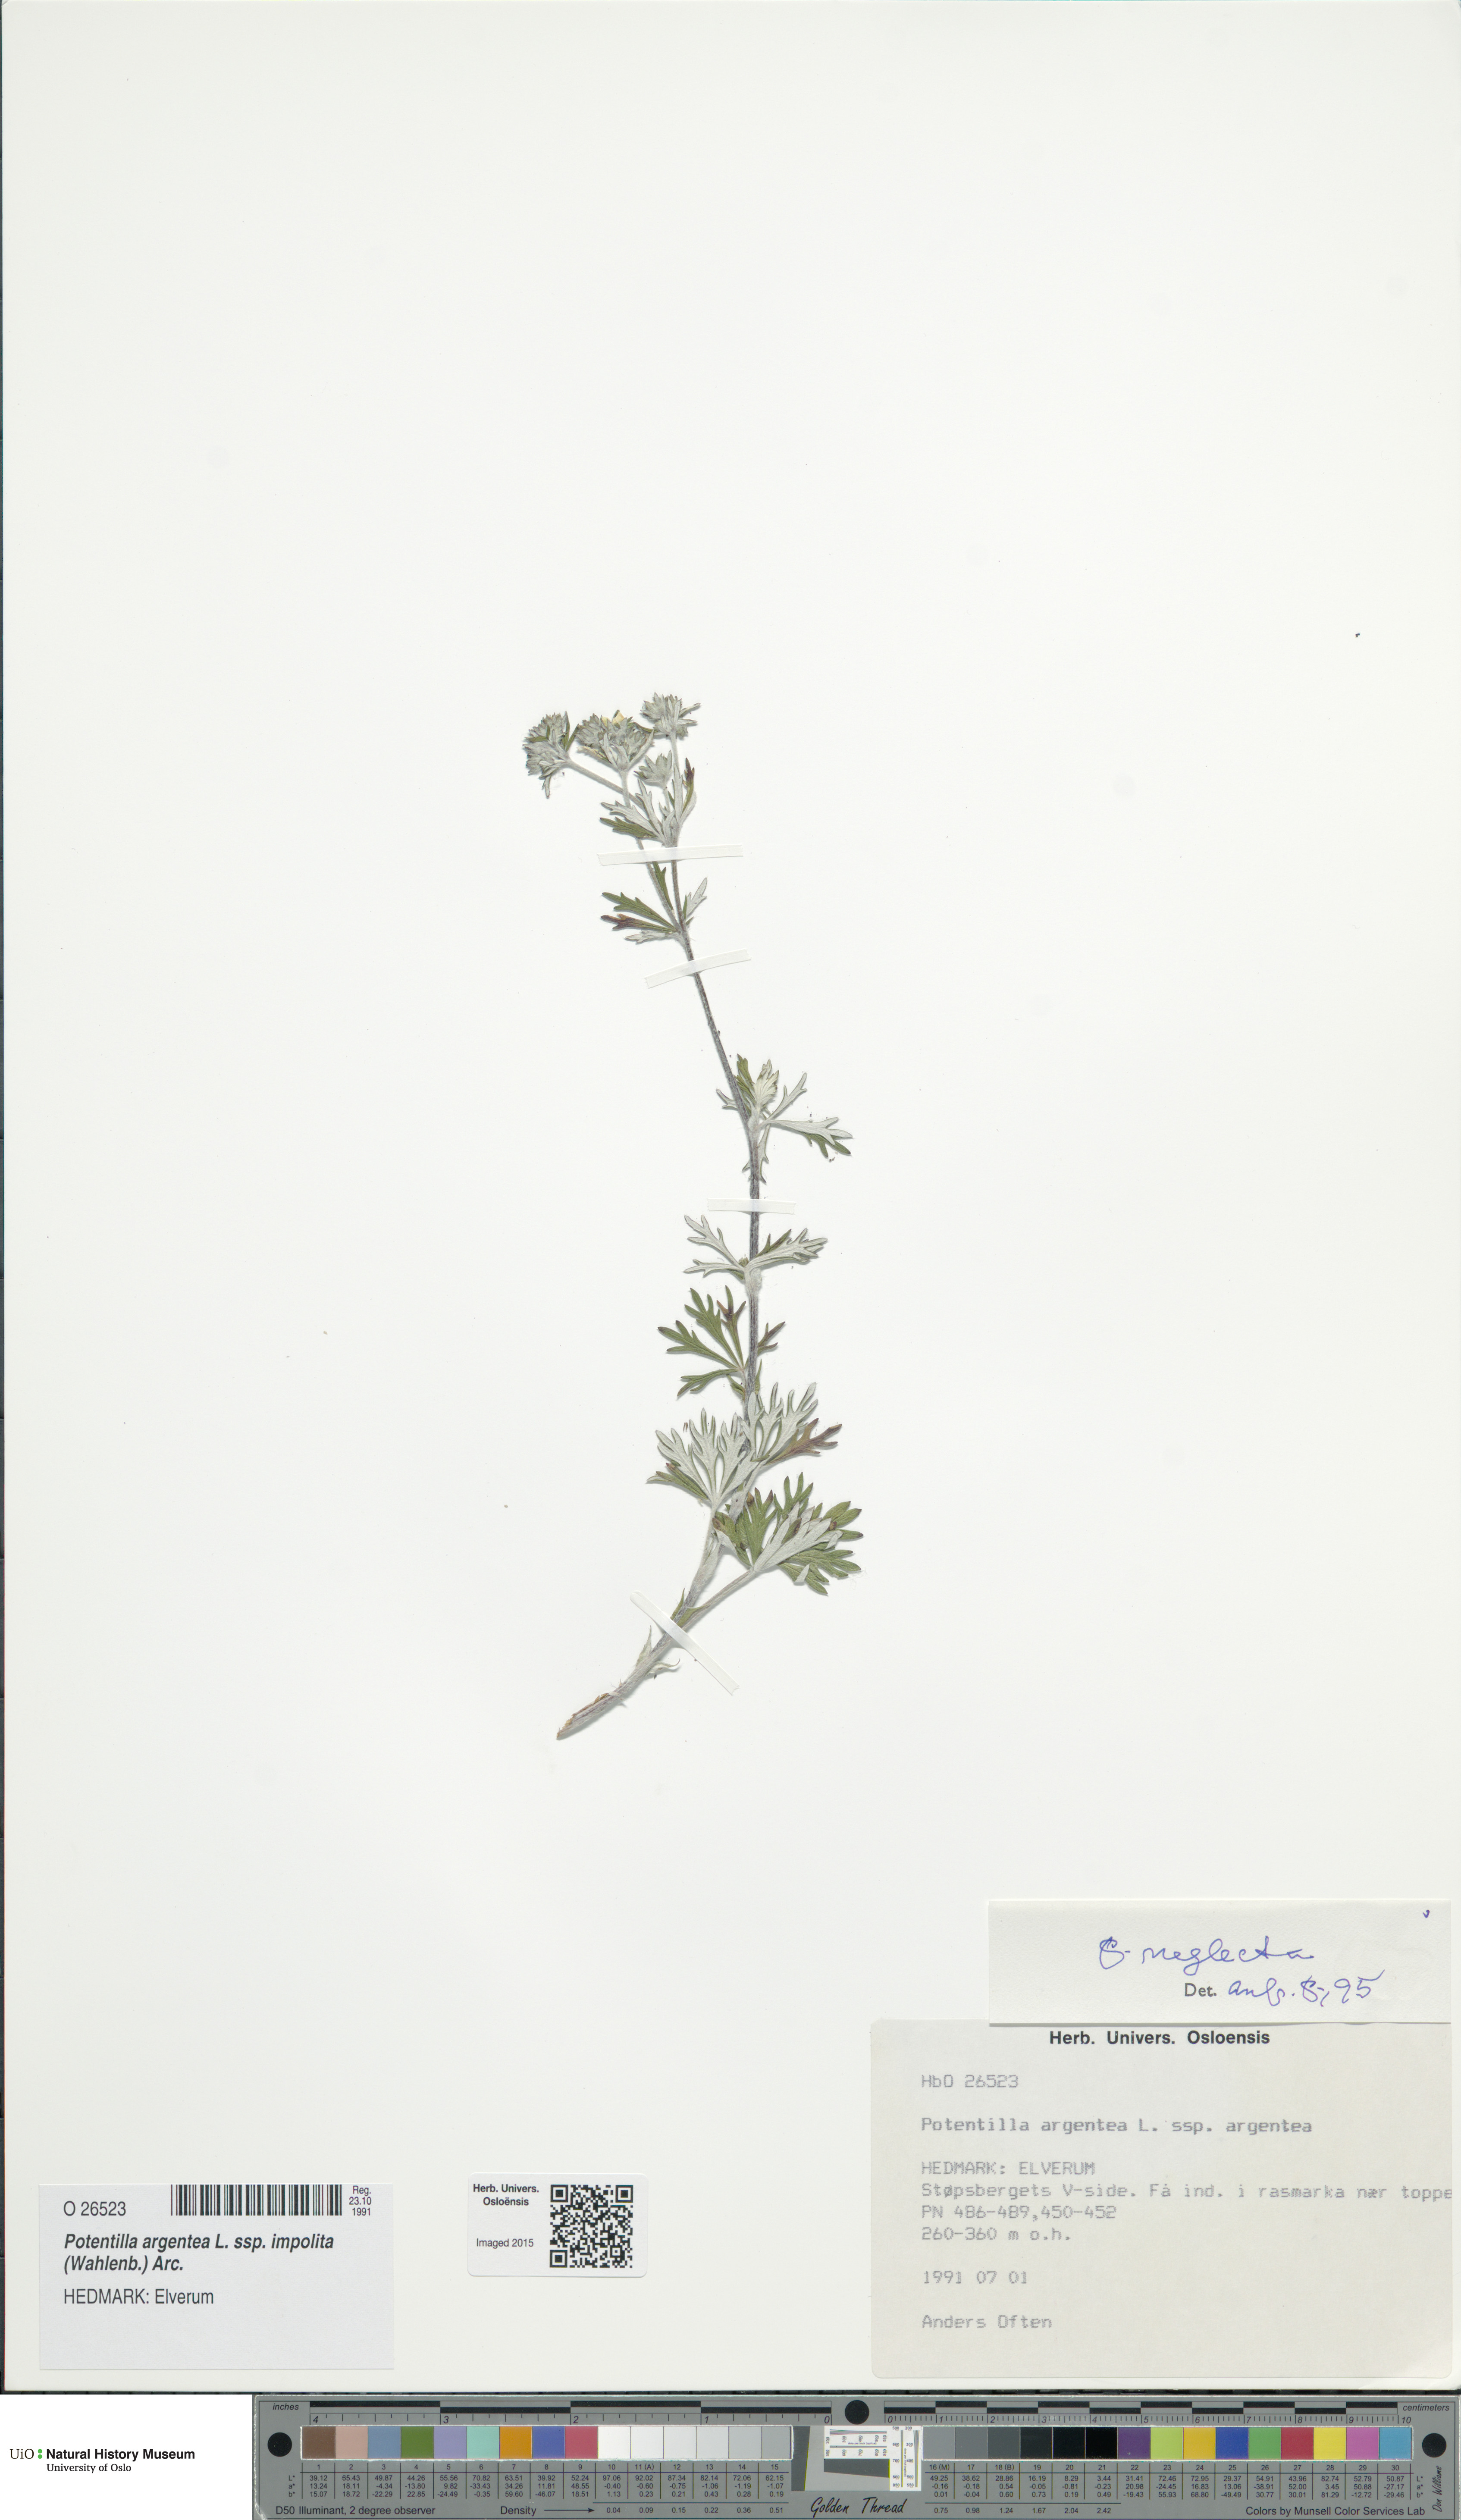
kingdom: Plantae
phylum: Tracheophyta
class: Magnoliopsida
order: Rosales
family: Rosaceae
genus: Potentilla
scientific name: Potentilla neglecta
